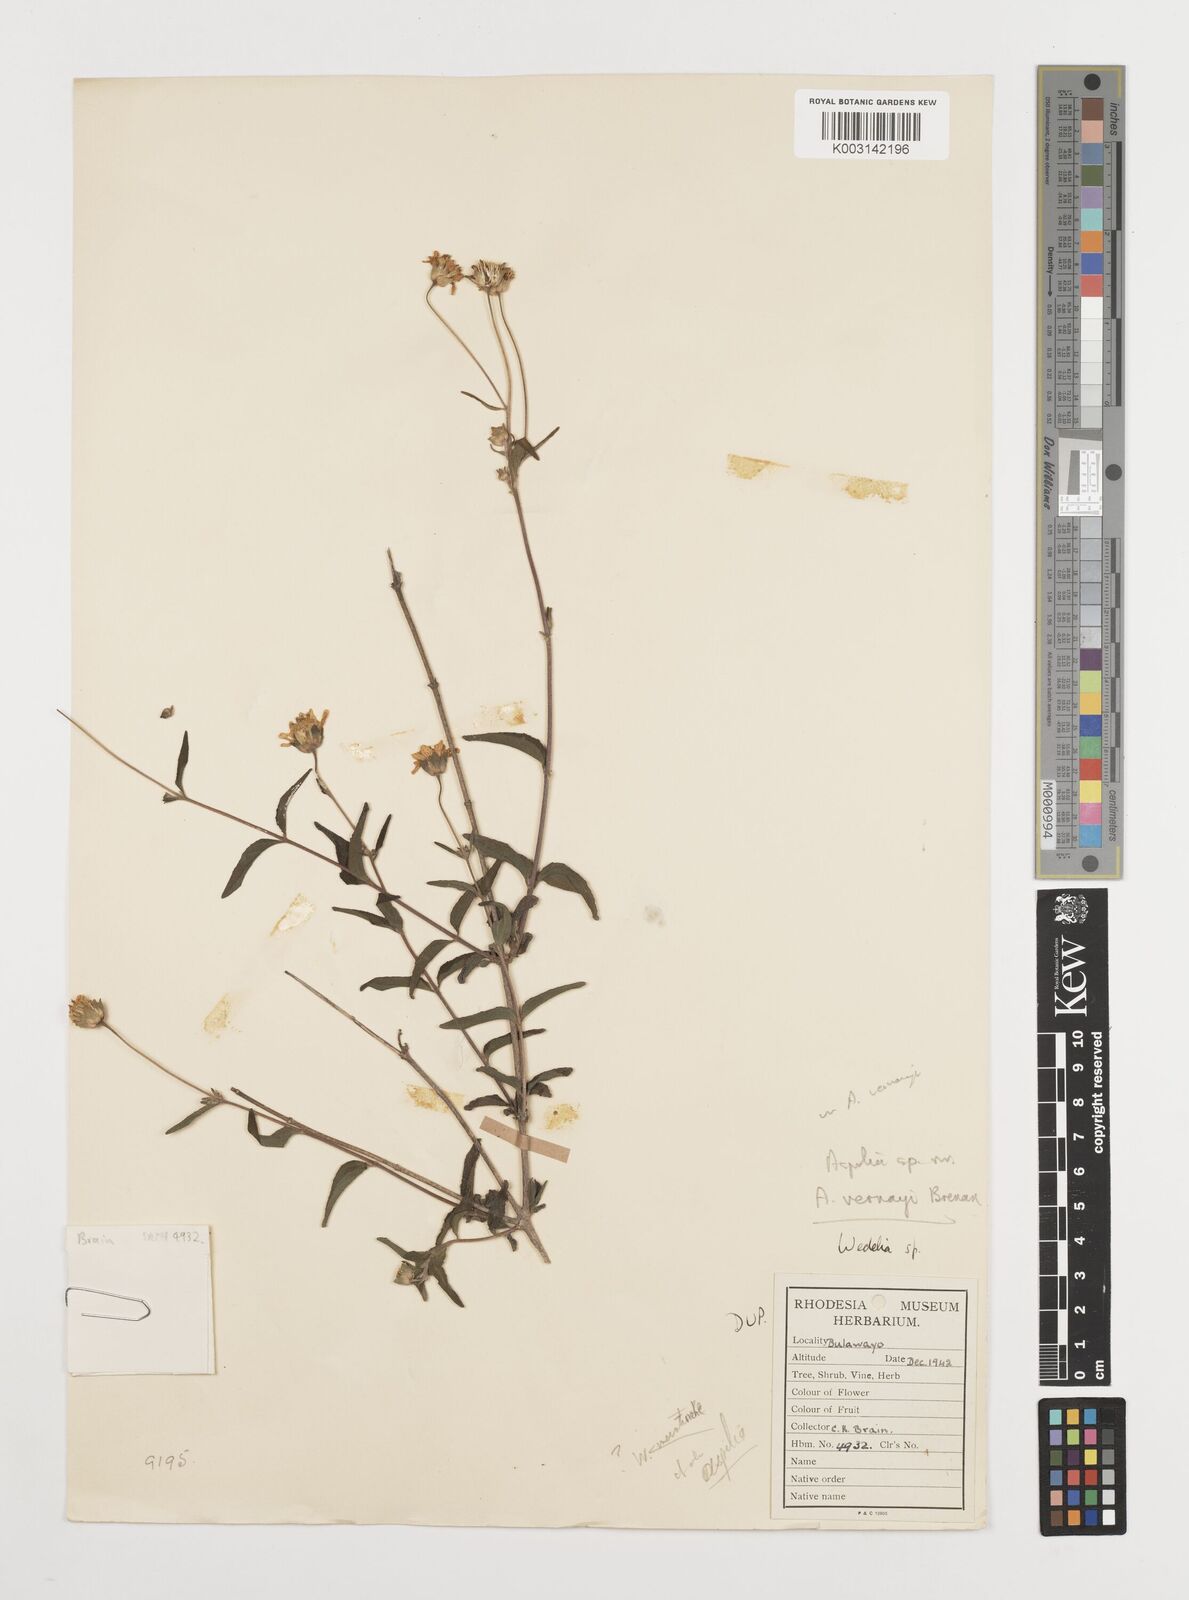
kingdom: Plantae
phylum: Tracheophyta
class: Magnoliopsida
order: Asterales
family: Asteraceae
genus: Aspilia
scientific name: Aspilia mossambicensis
